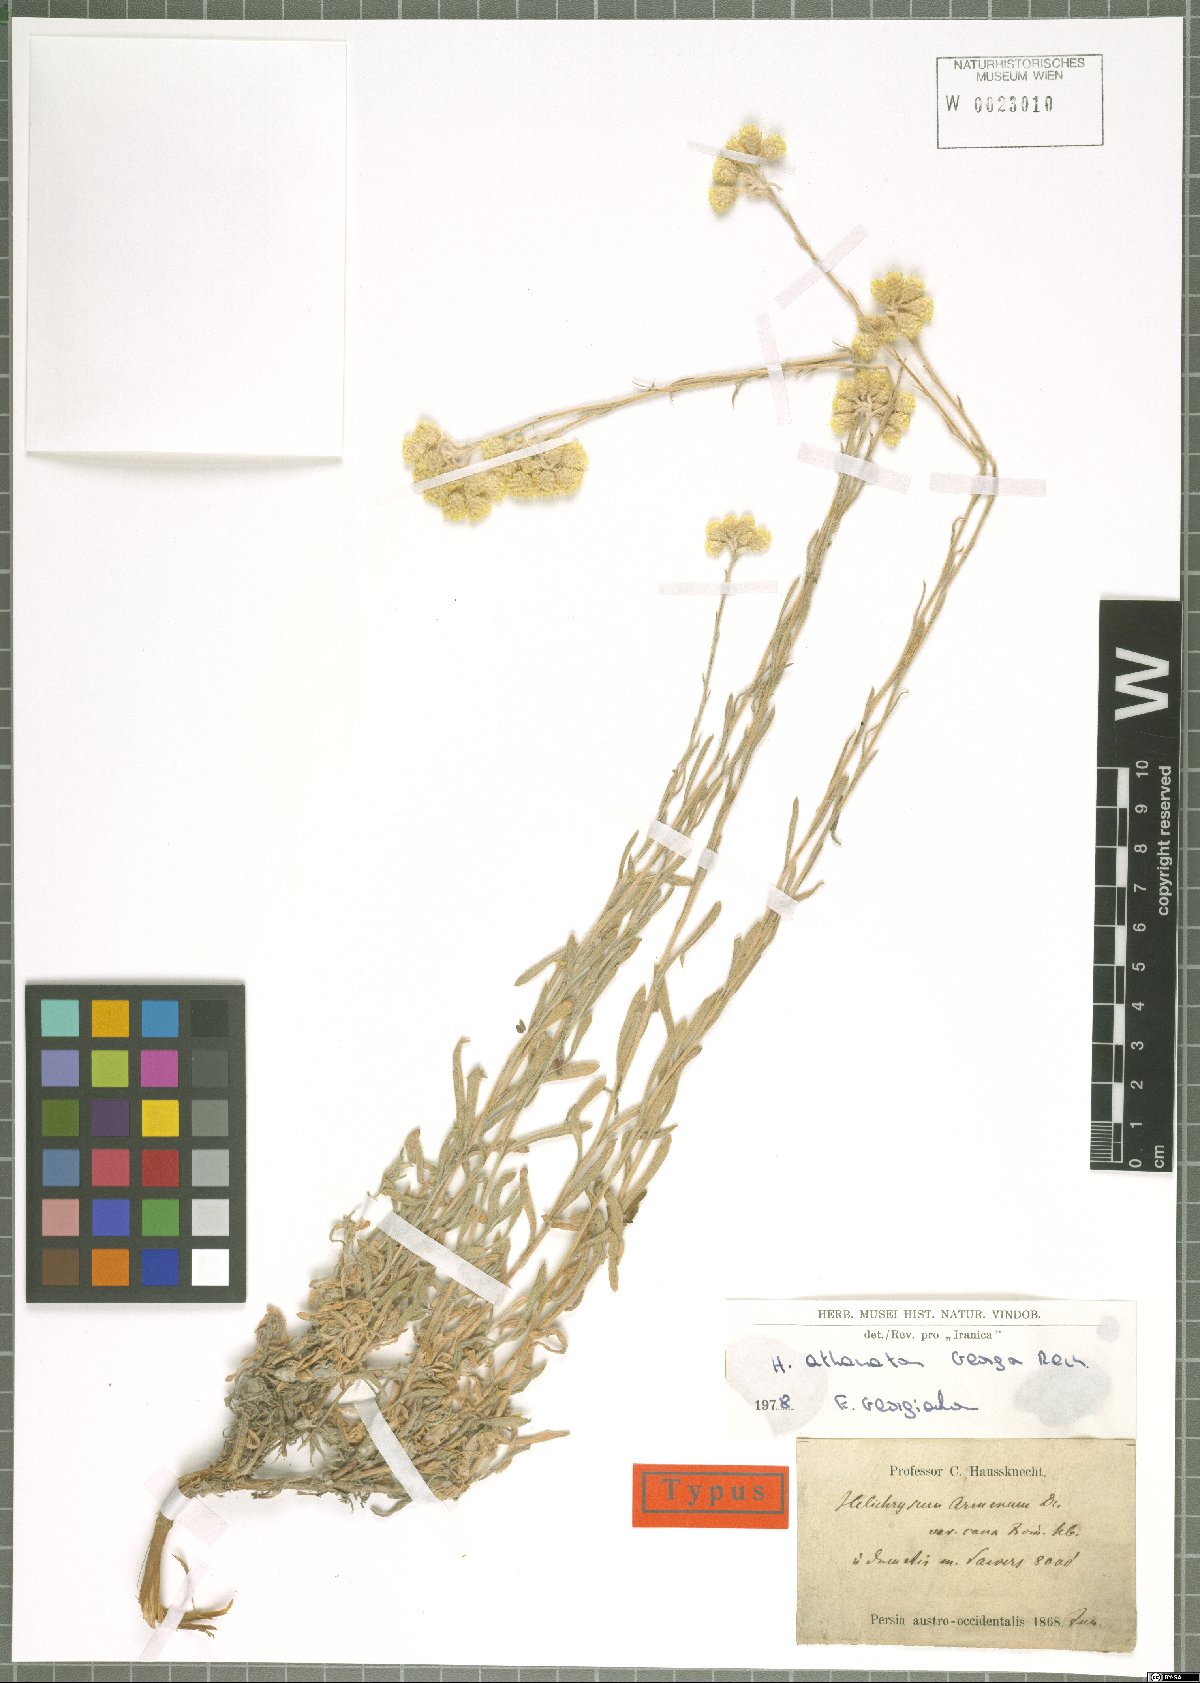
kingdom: Plantae
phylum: Tracheophyta
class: Magnoliopsida
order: Asterales
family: Asteraceae
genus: Helichrysum
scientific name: Helichrysum athanaton
